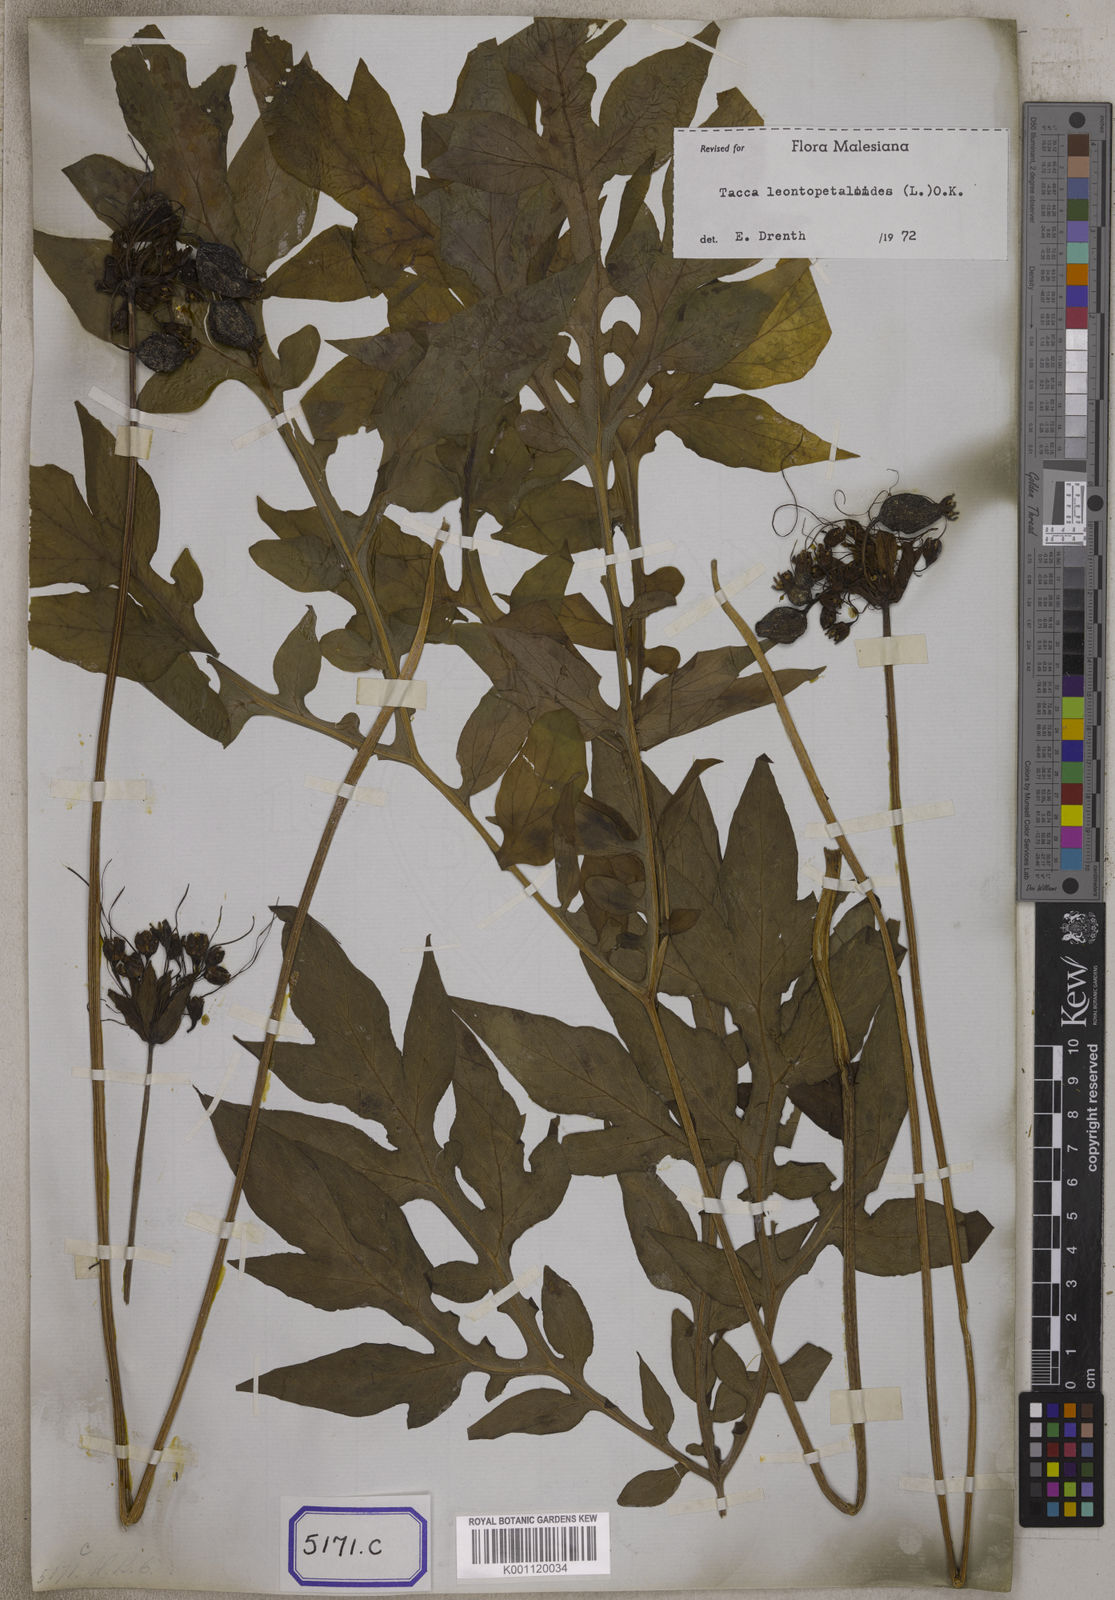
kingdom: Plantae
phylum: Tracheophyta
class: Liliopsida
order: Dioscoreales
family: Dioscoreaceae
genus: Tacca
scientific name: Tacca
